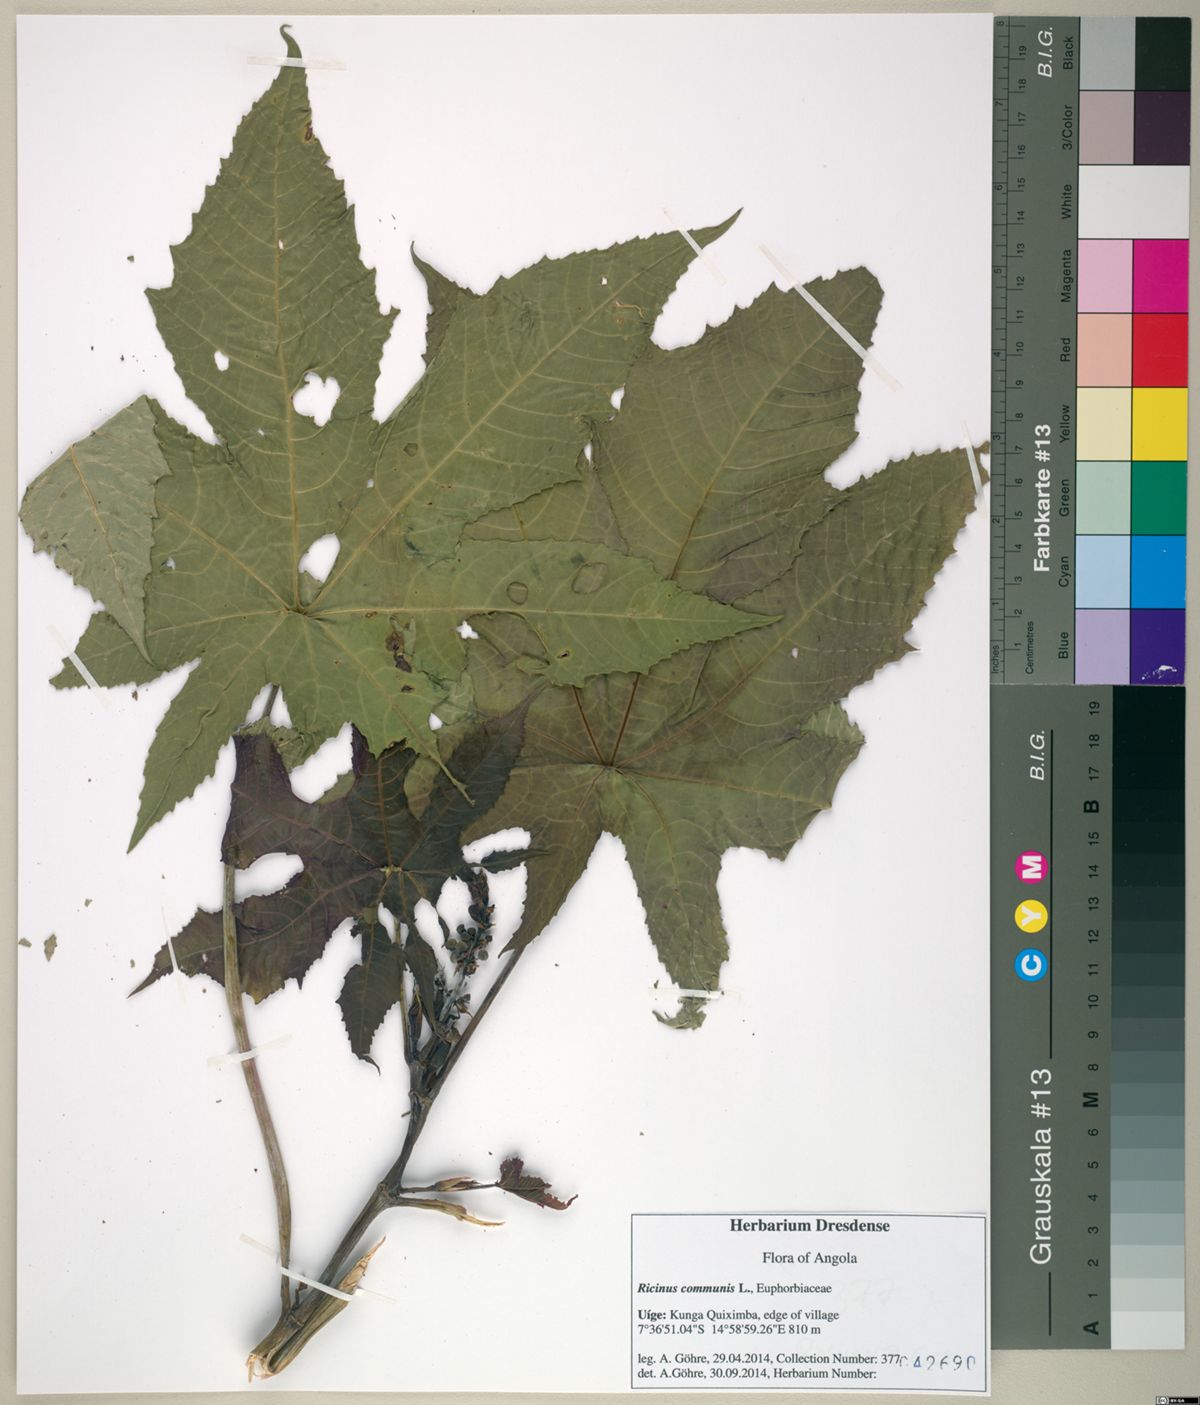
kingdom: Plantae
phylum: Tracheophyta
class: Magnoliopsida
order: Malpighiales
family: Euphorbiaceae
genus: Ricinus
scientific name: Ricinus communis
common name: Castor-oil-plant
